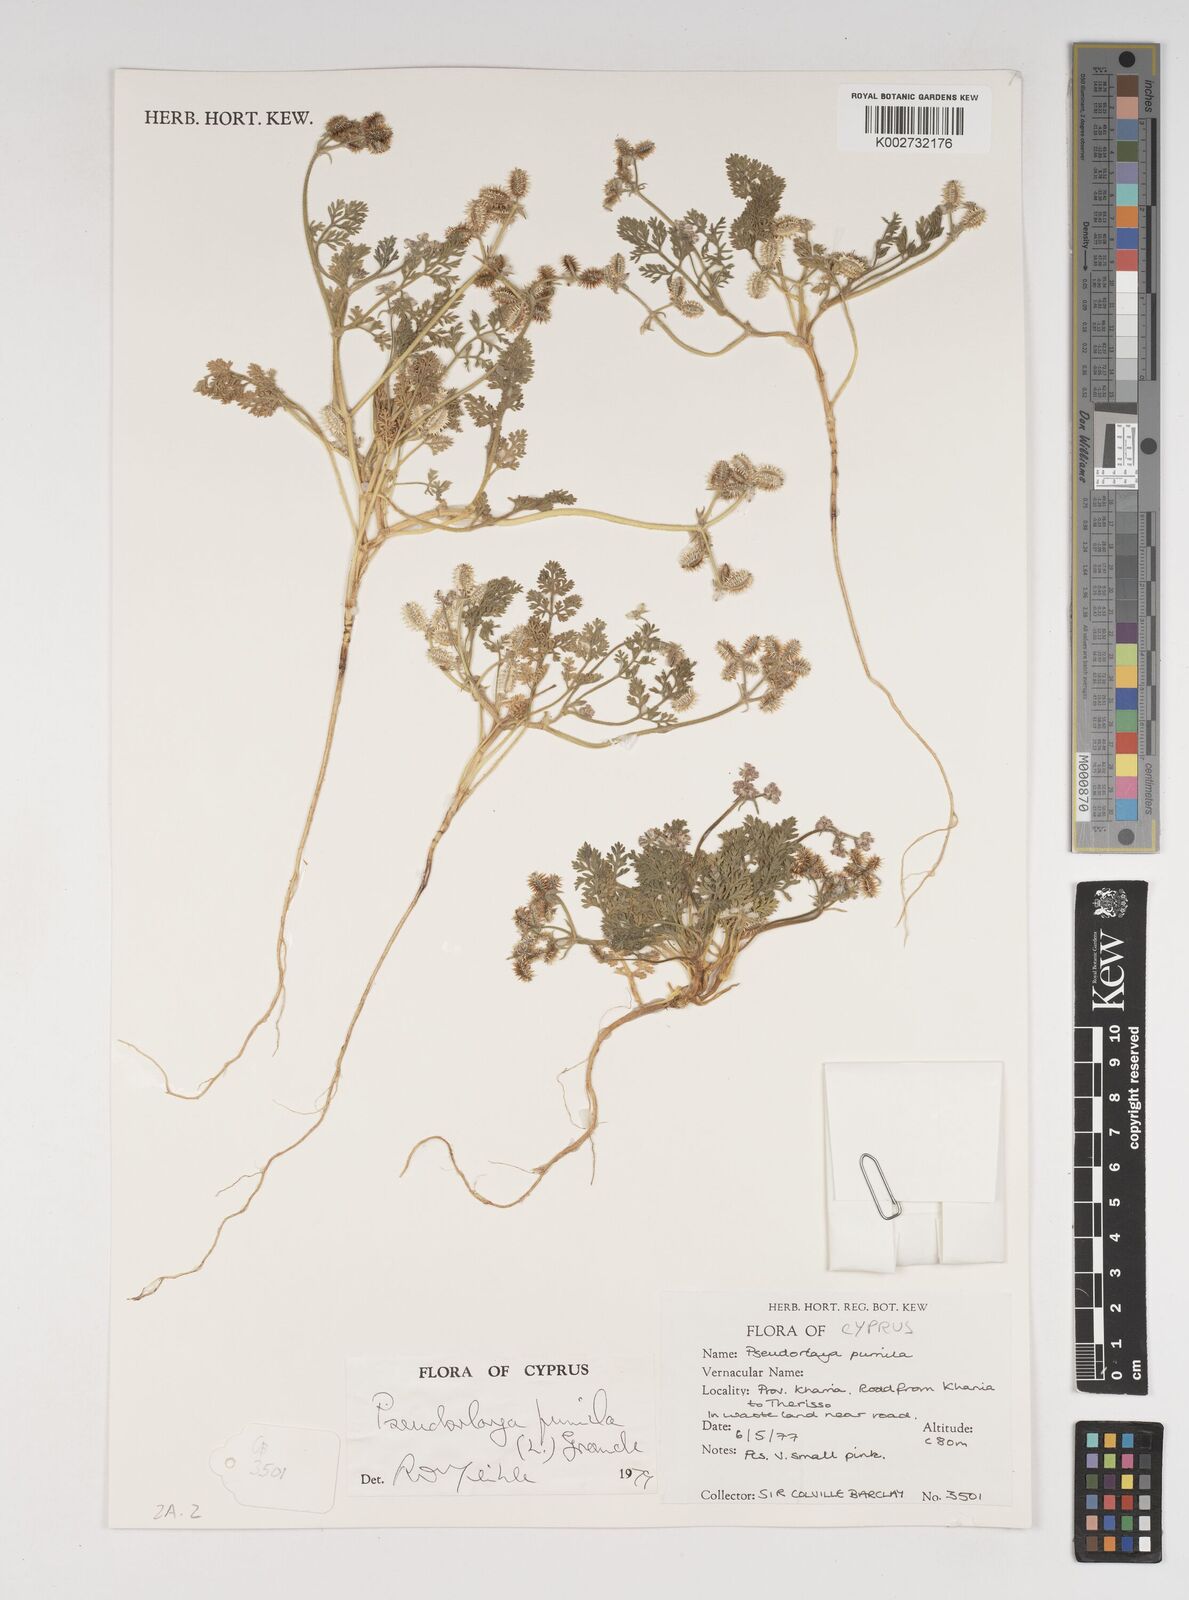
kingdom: Plantae
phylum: Tracheophyta
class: Magnoliopsida
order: Apiales
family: Apiaceae
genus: Daucus
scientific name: Daucus pumilus
